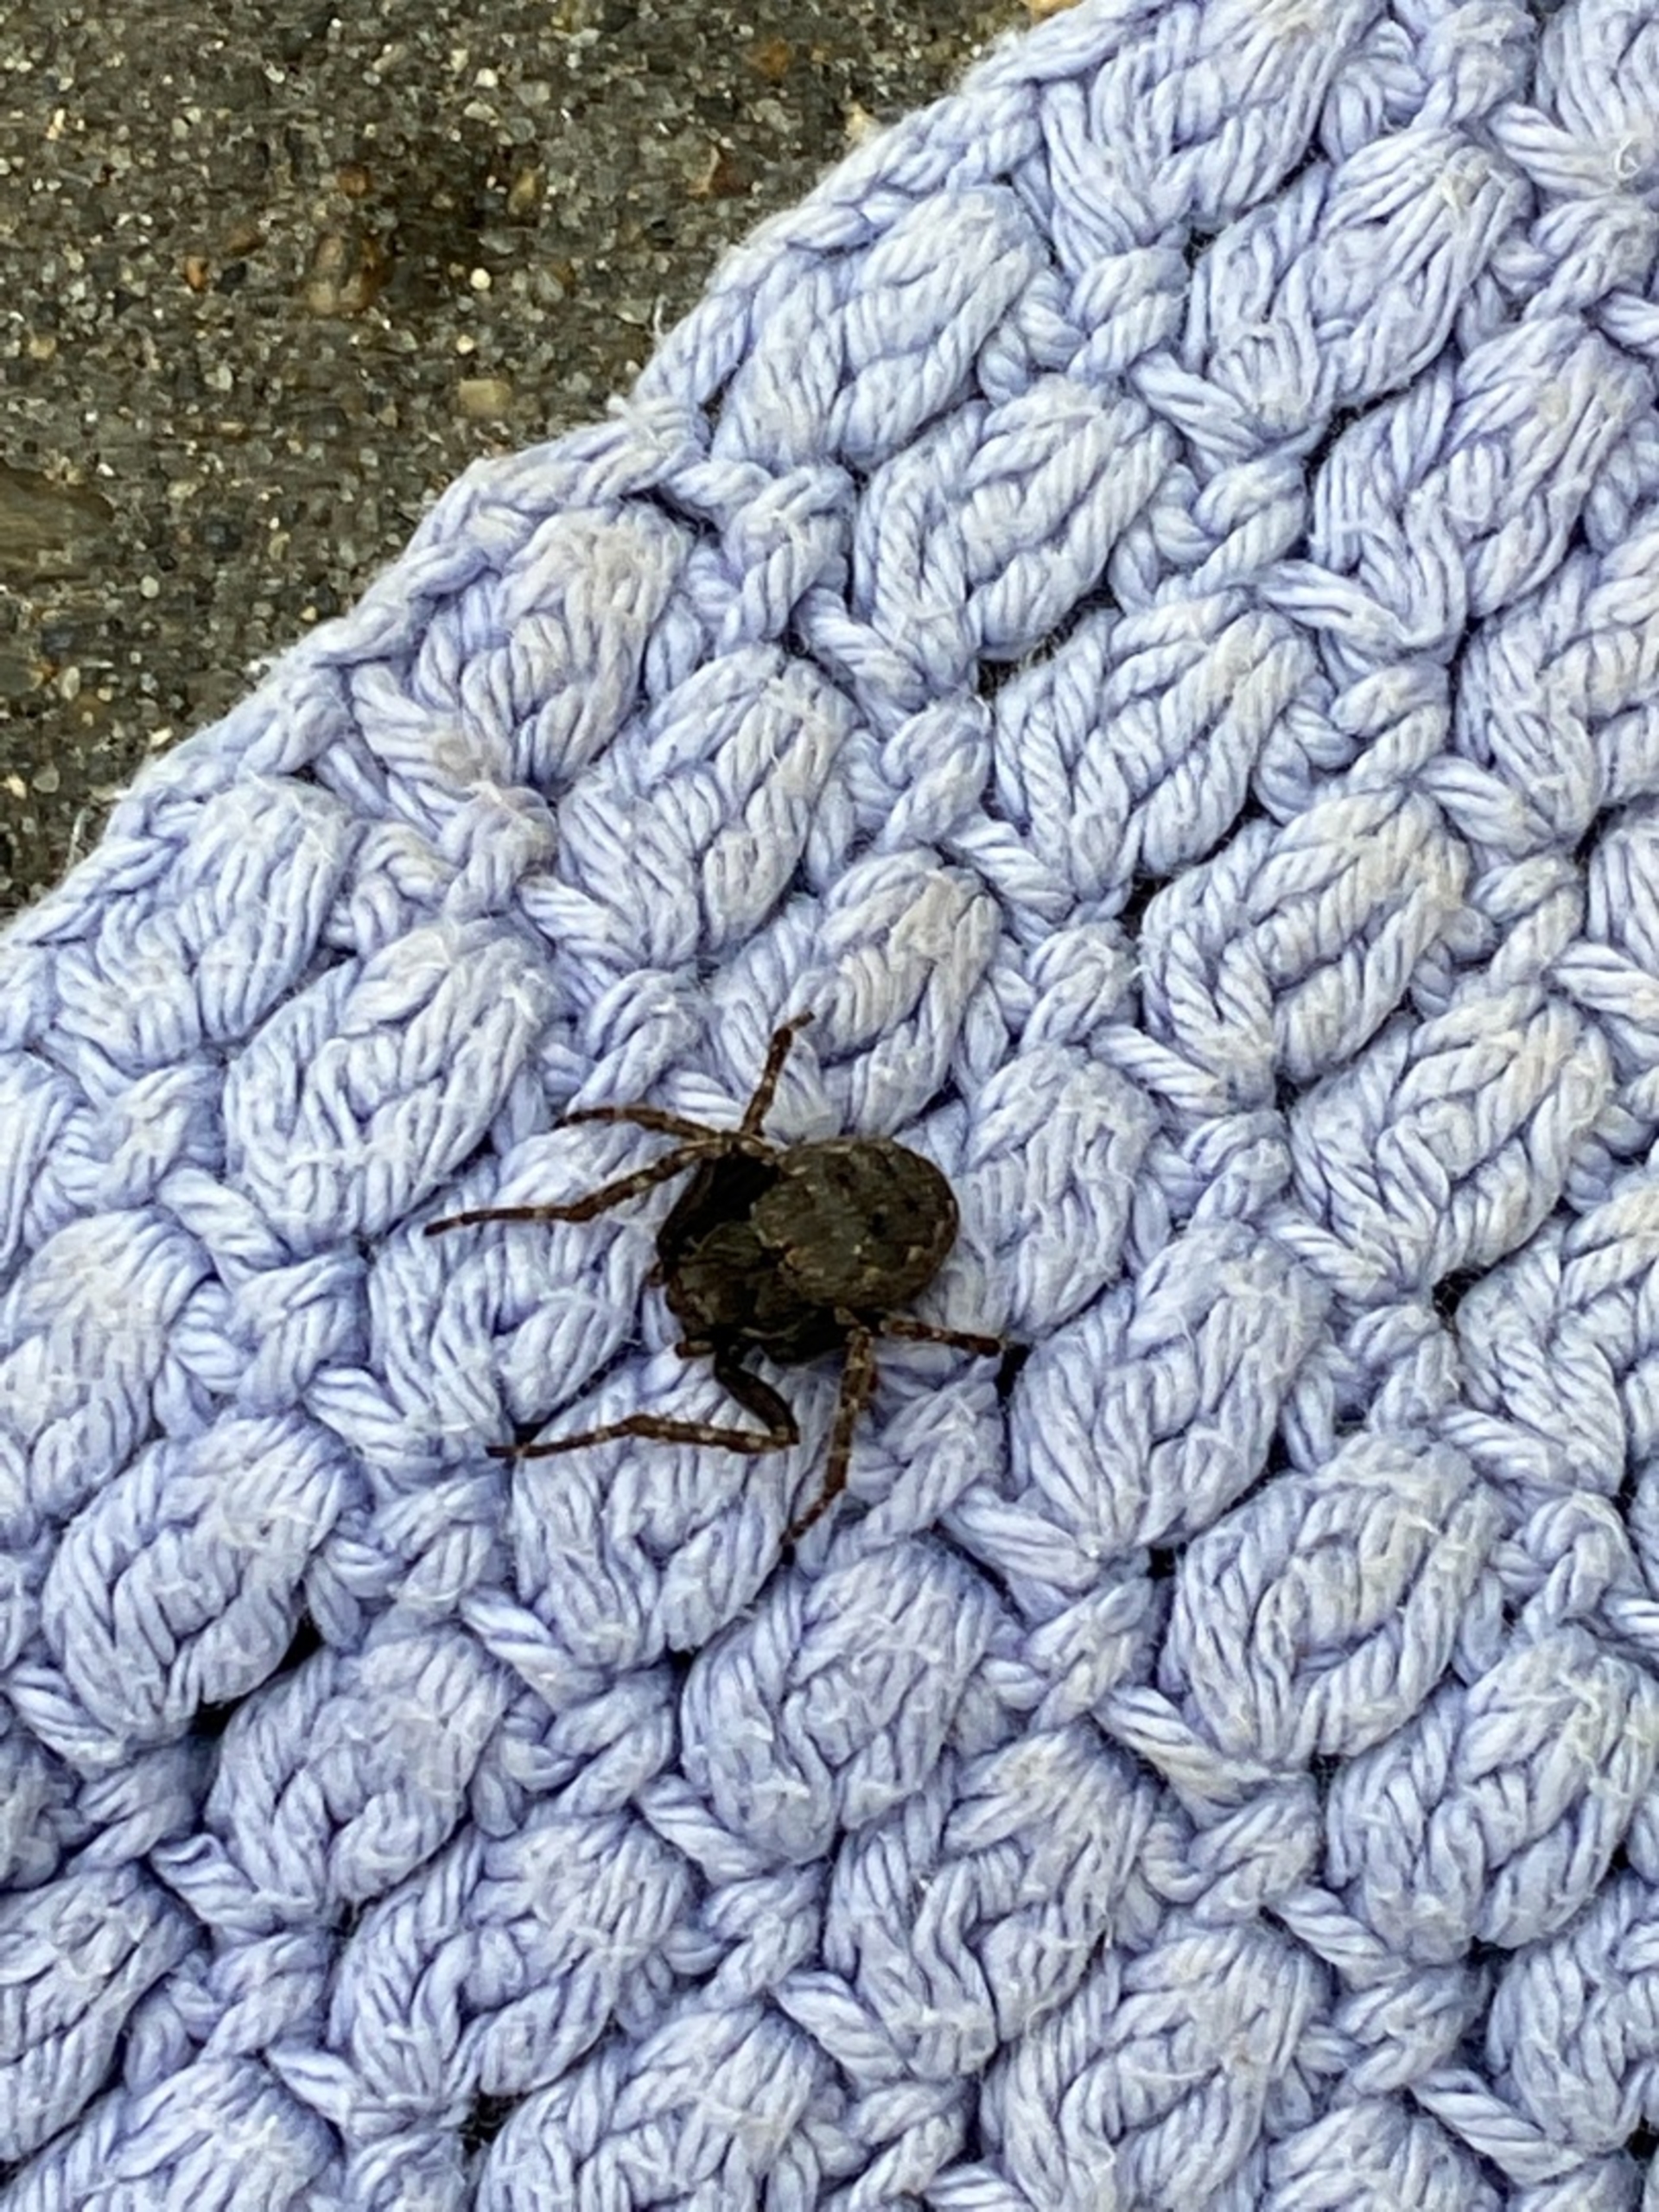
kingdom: Animalia
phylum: Arthropoda
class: Arachnida
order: Araneae
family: Araneidae
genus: Nuctenea
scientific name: Nuctenea umbratica
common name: Flad hjulspinder
